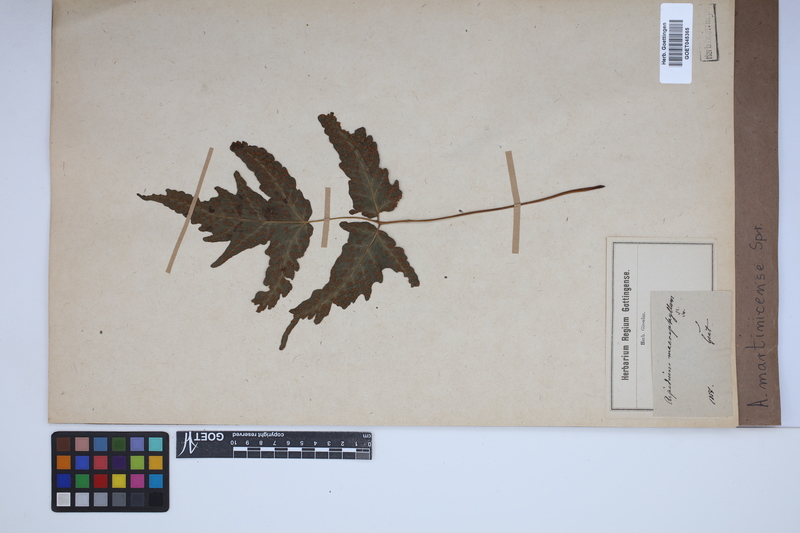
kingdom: Plantae
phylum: Tracheophyta
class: Polypodiopsida
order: Polypodiales
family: Tectariaceae
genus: Tectaria
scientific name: Tectaria incisa
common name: Incised halberd fern
